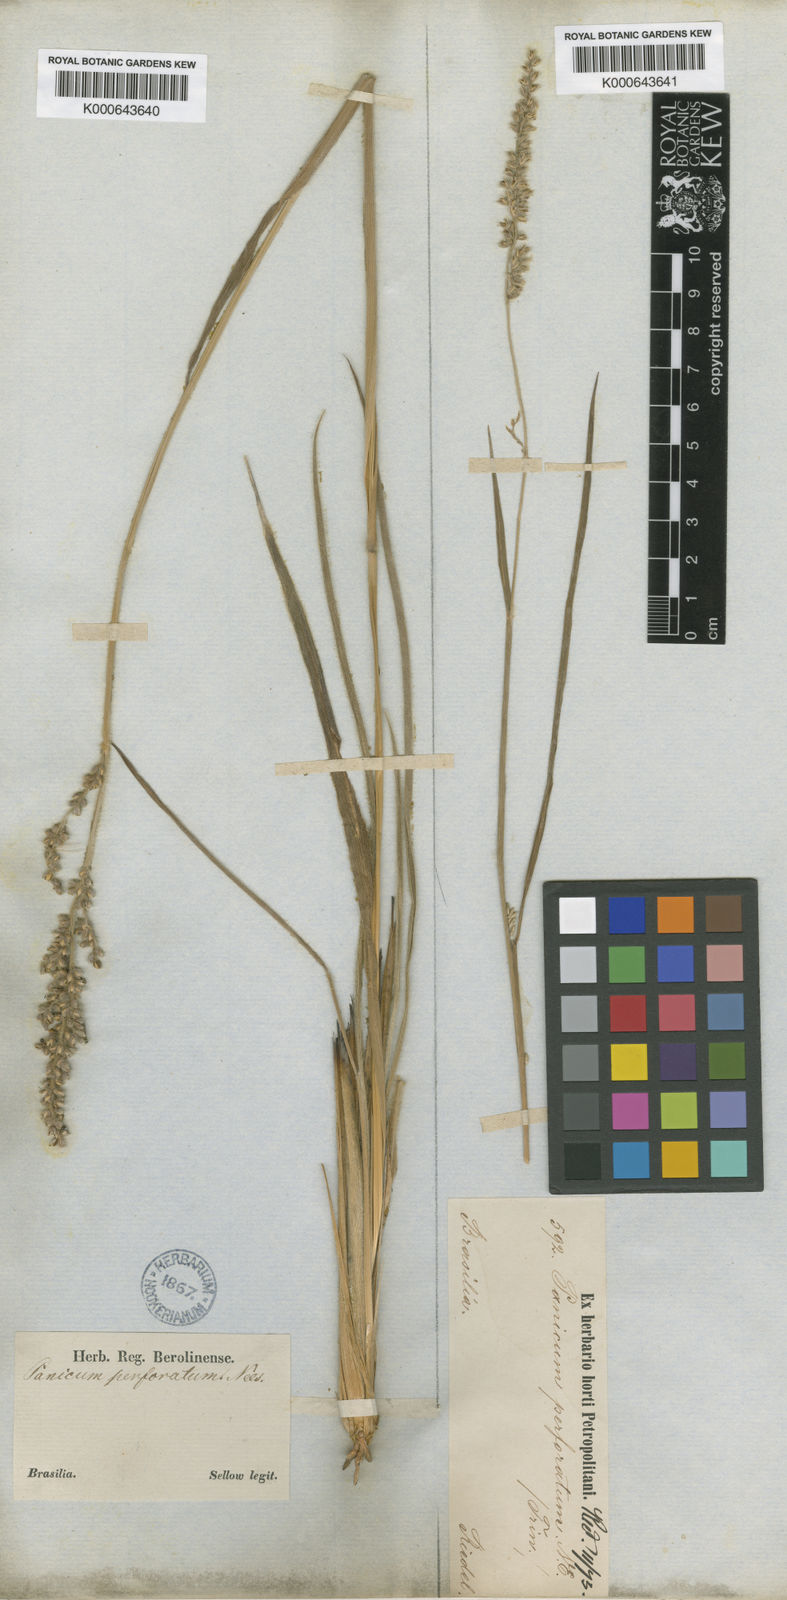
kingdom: Plantae
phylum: Tracheophyta
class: Liliopsida
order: Poales
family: Poaceae
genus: Anthaenantiopsis
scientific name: Anthaenantiopsis perforata
